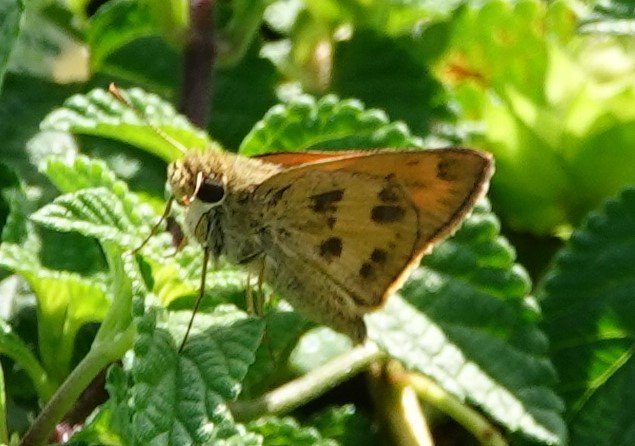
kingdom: Animalia
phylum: Arthropoda
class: Insecta
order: Lepidoptera
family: Hesperiidae
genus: Polites
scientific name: Polites vibex
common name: Whirlabout
